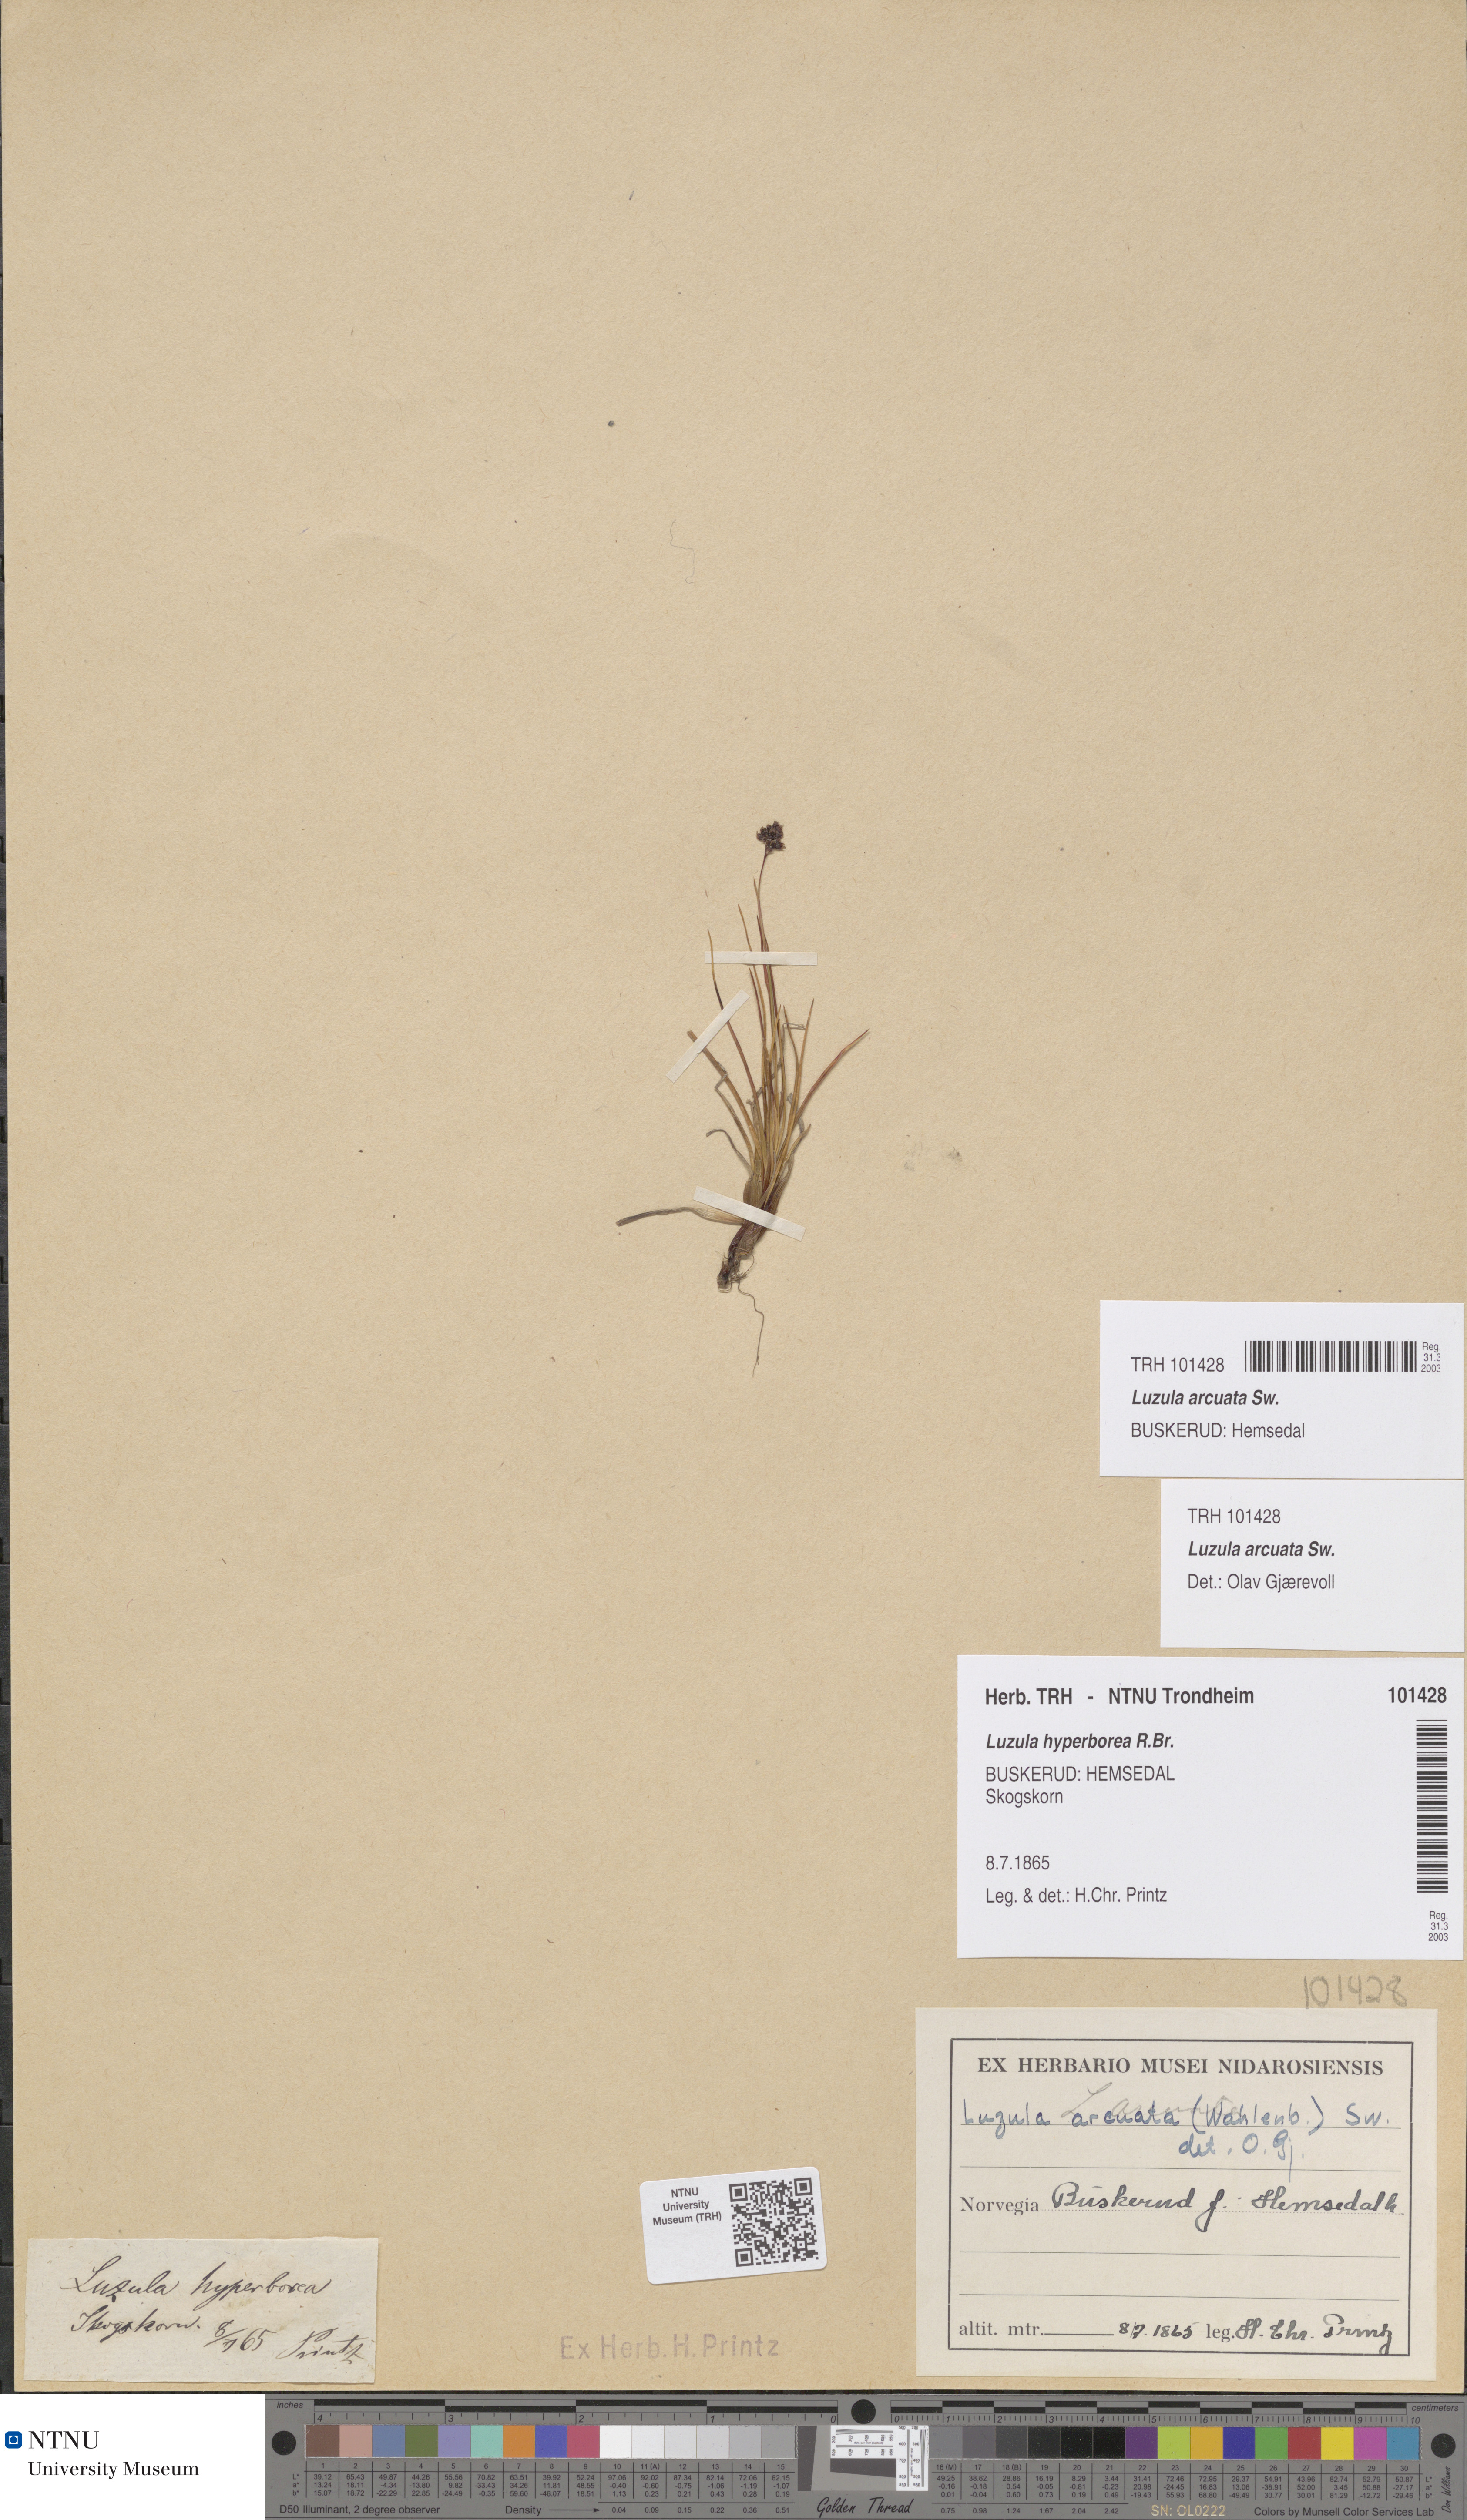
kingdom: Plantae
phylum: Tracheophyta
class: Liliopsida
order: Poales
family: Juncaceae
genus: Luzula
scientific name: Luzula arcuata
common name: Curved wood-rush
